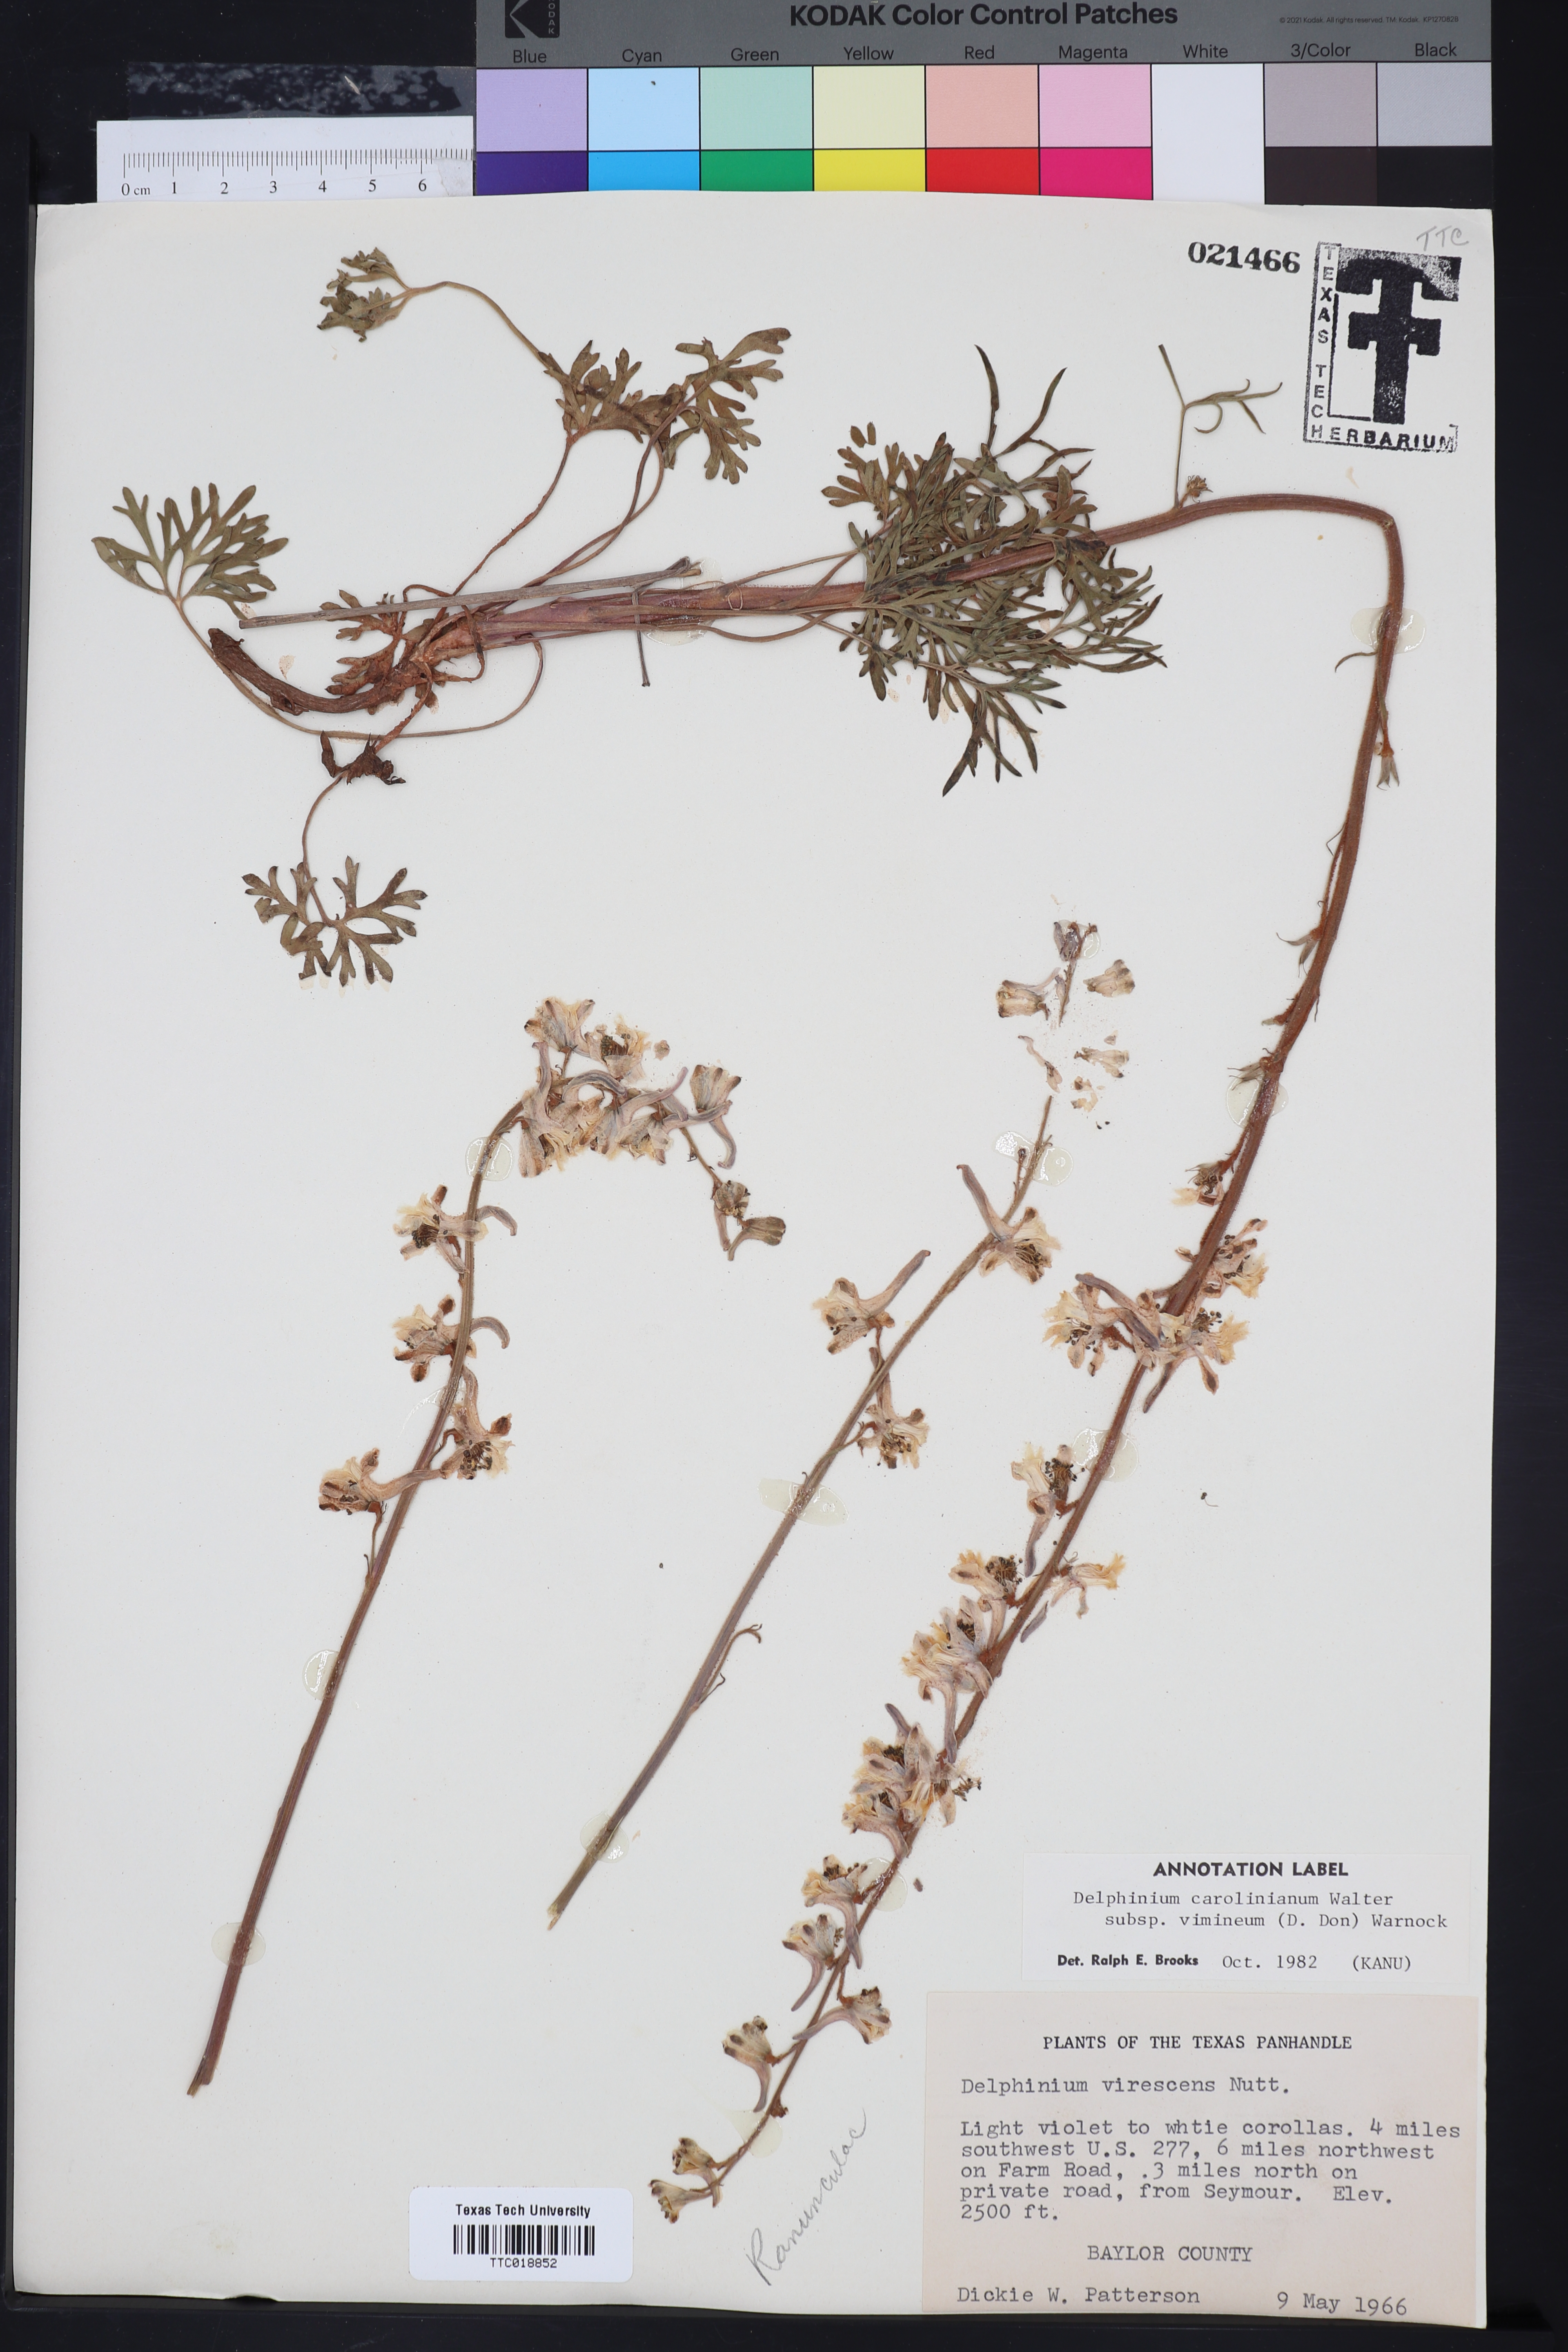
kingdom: Plantae
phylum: Tracheophyta
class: Magnoliopsida
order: Ranunculales
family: Ranunculaceae
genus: Delphinium
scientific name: Delphinium carolinianum
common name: Carolina larkspur
